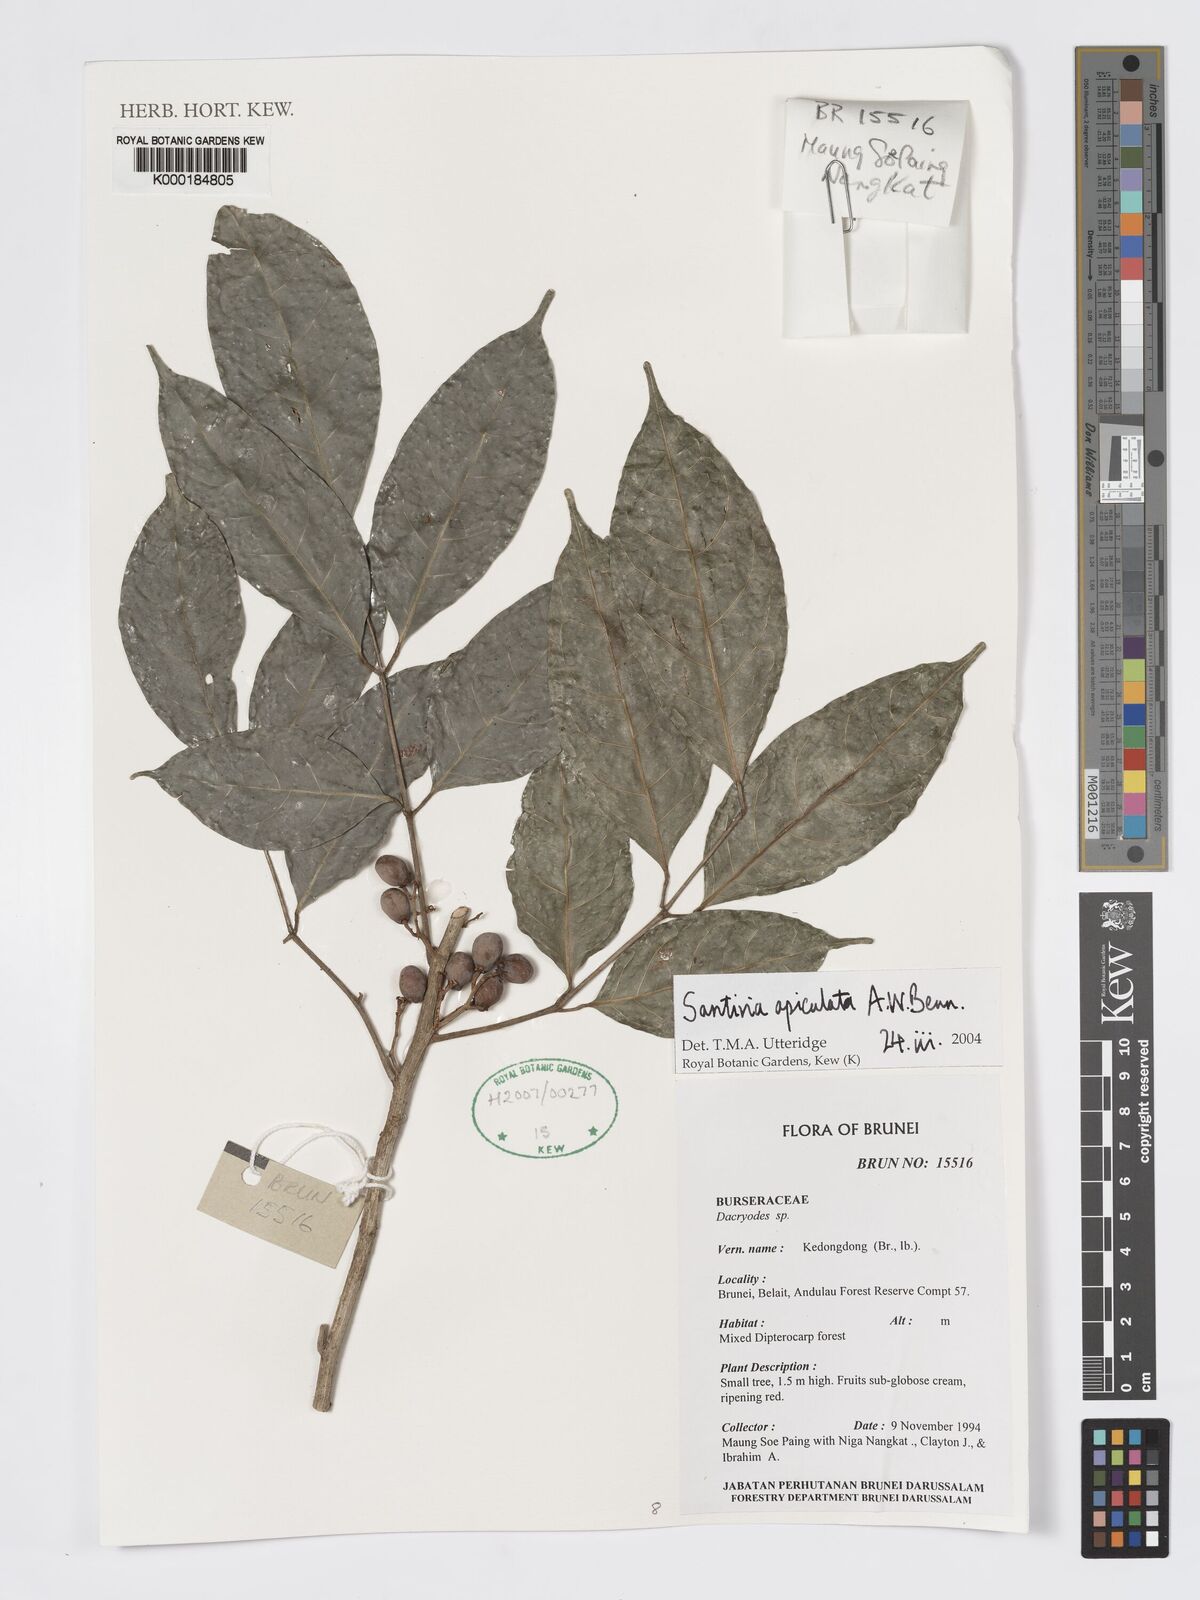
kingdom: Plantae
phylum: Tracheophyta
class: Magnoliopsida
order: Sapindales
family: Burseraceae
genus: Santiria
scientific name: Santiria apiculata
